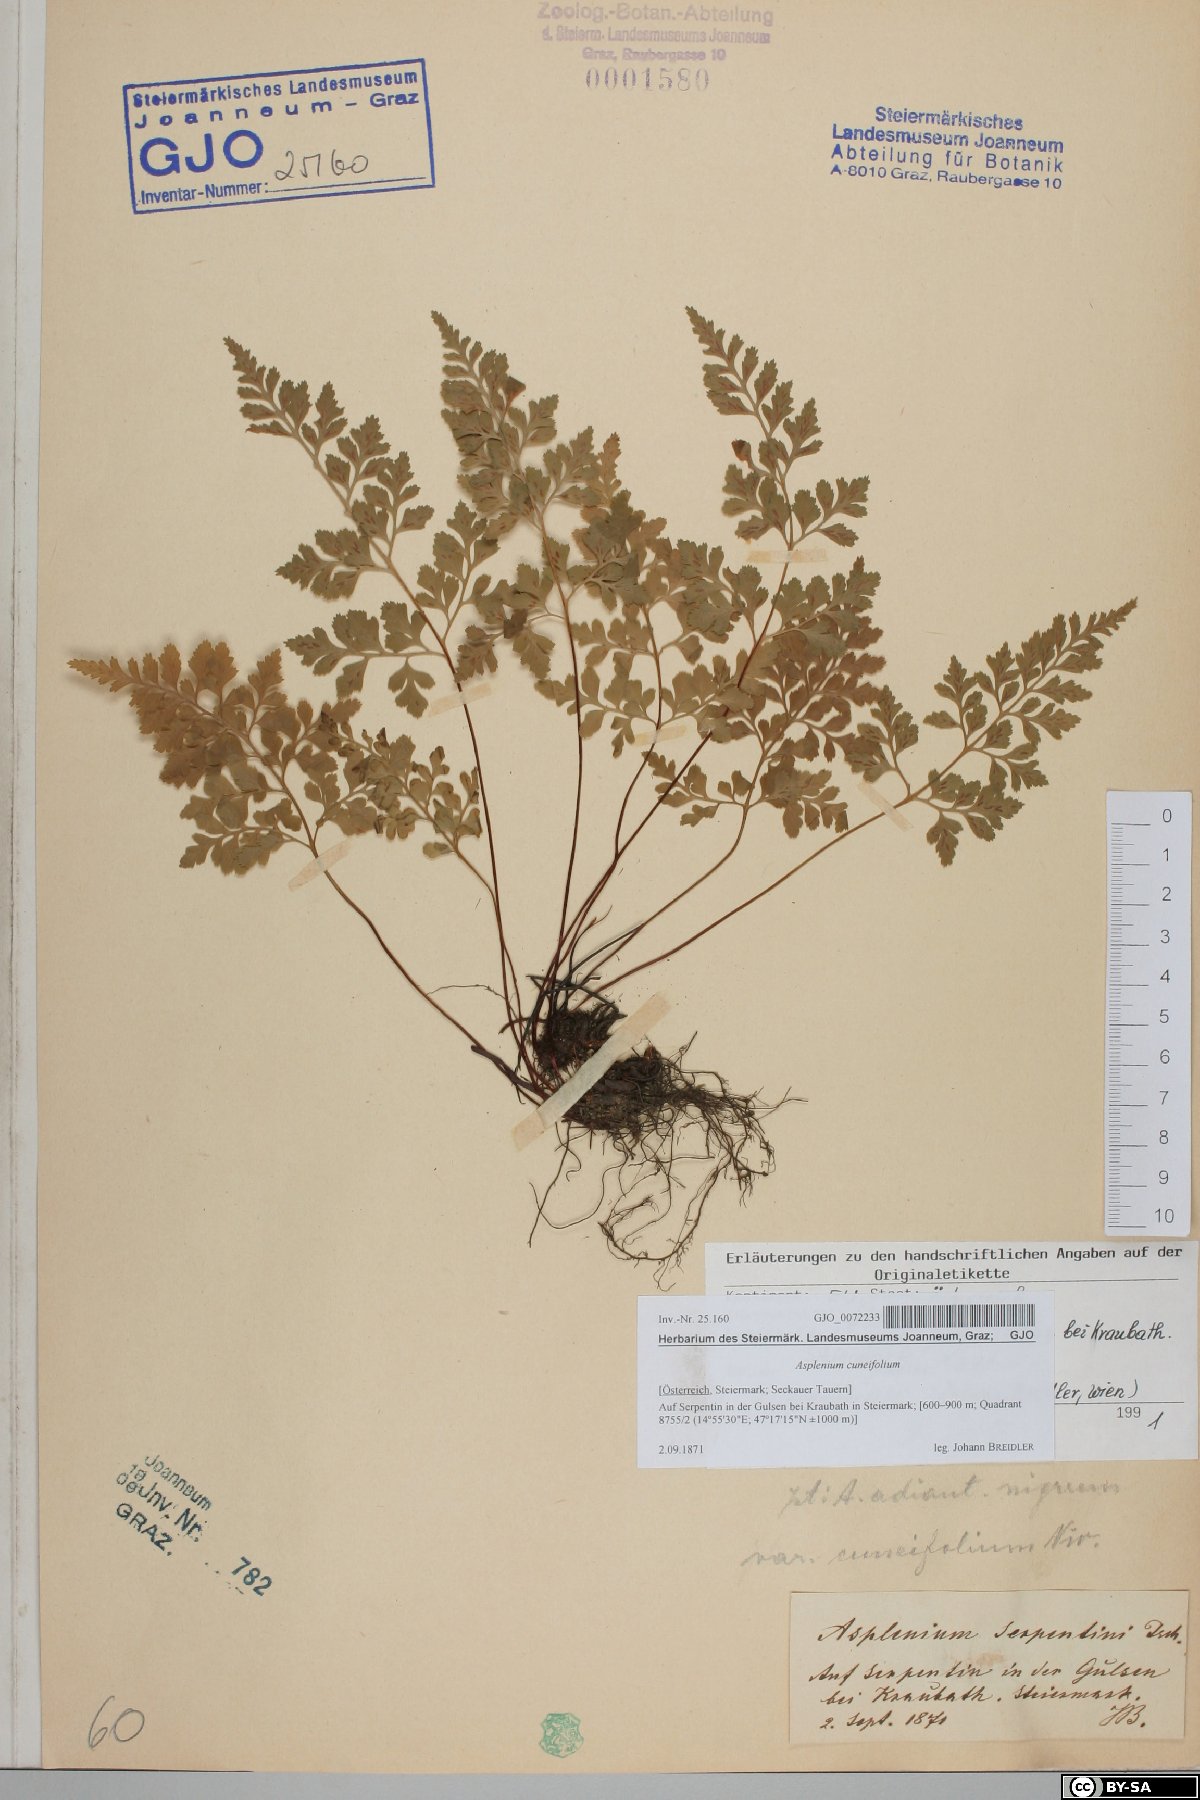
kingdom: Plantae
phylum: Tracheophyta
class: Polypodiopsida
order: Polypodiales
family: Aspleniaceae
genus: Asplenium
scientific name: Asplenium cuneifolium
